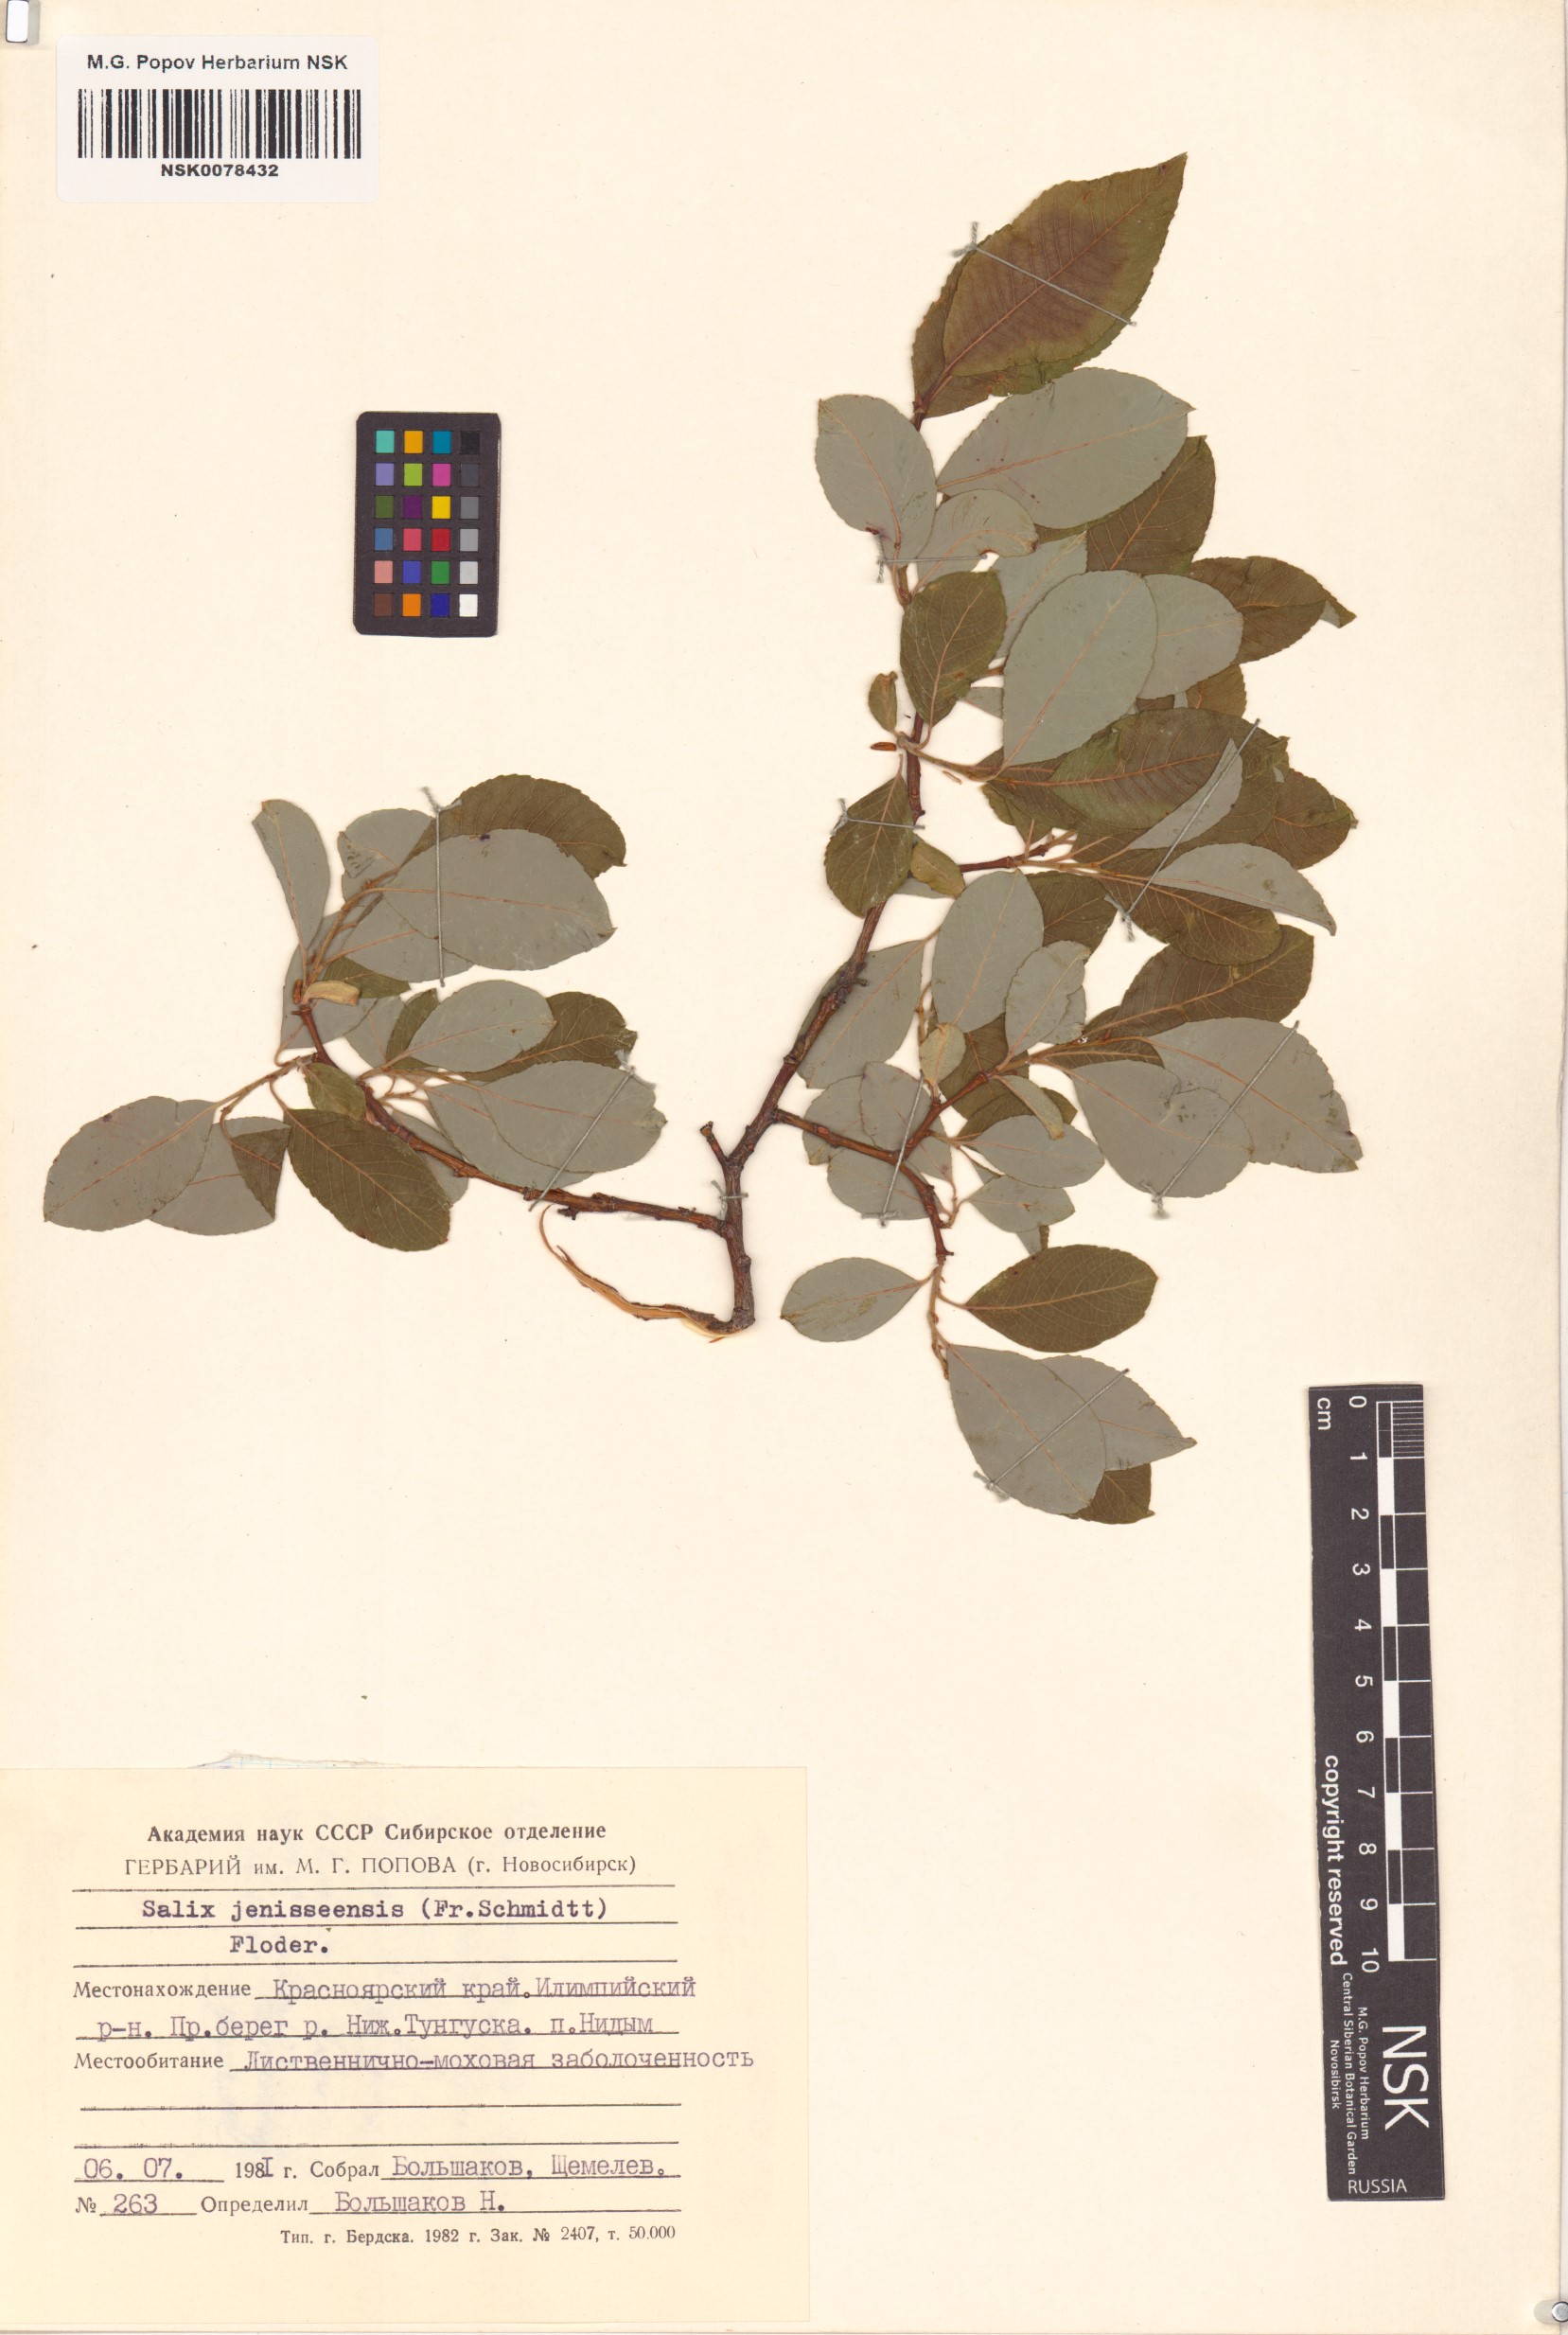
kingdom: Plantae
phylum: Tracheophyta
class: Magnoliopsida
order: Malpighiales
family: Salicaceae
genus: Salix
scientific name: Salix jenisseensis
